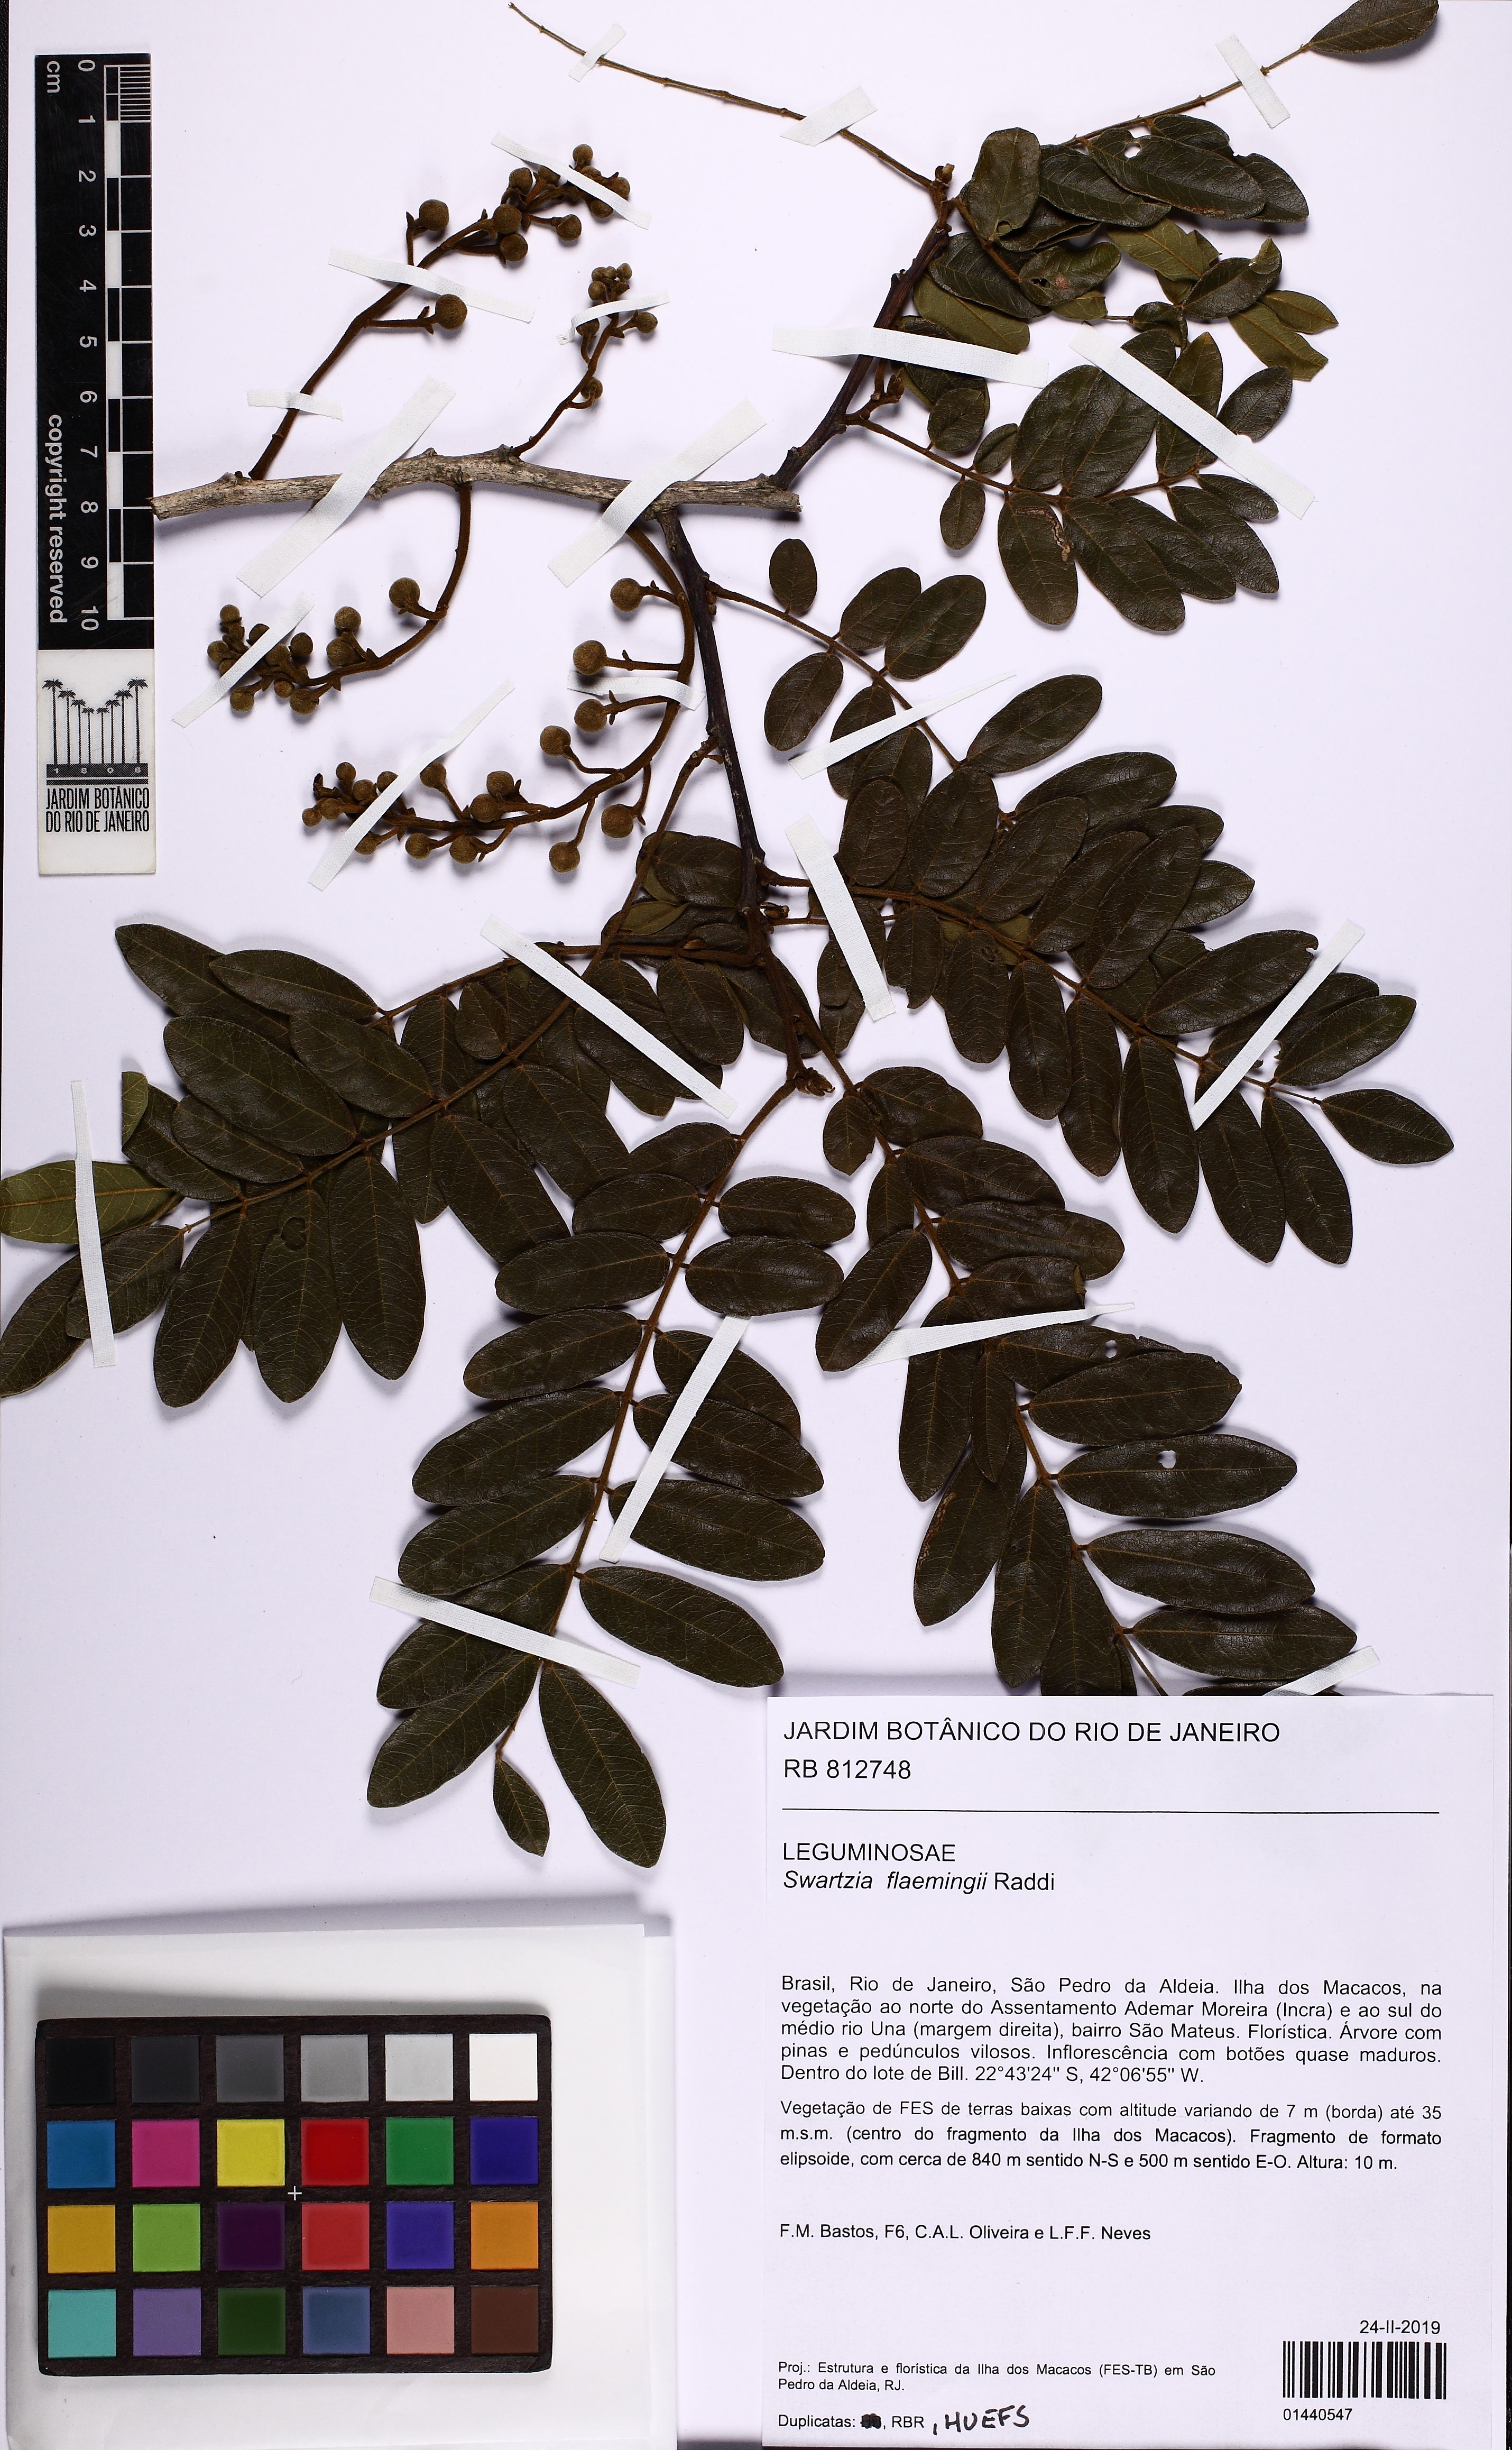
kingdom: Plantae
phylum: Tracheophyta
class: Magnoliopsida
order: Fabales
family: Fabaceae
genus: Swartzia
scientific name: Swartzia flaemingii
